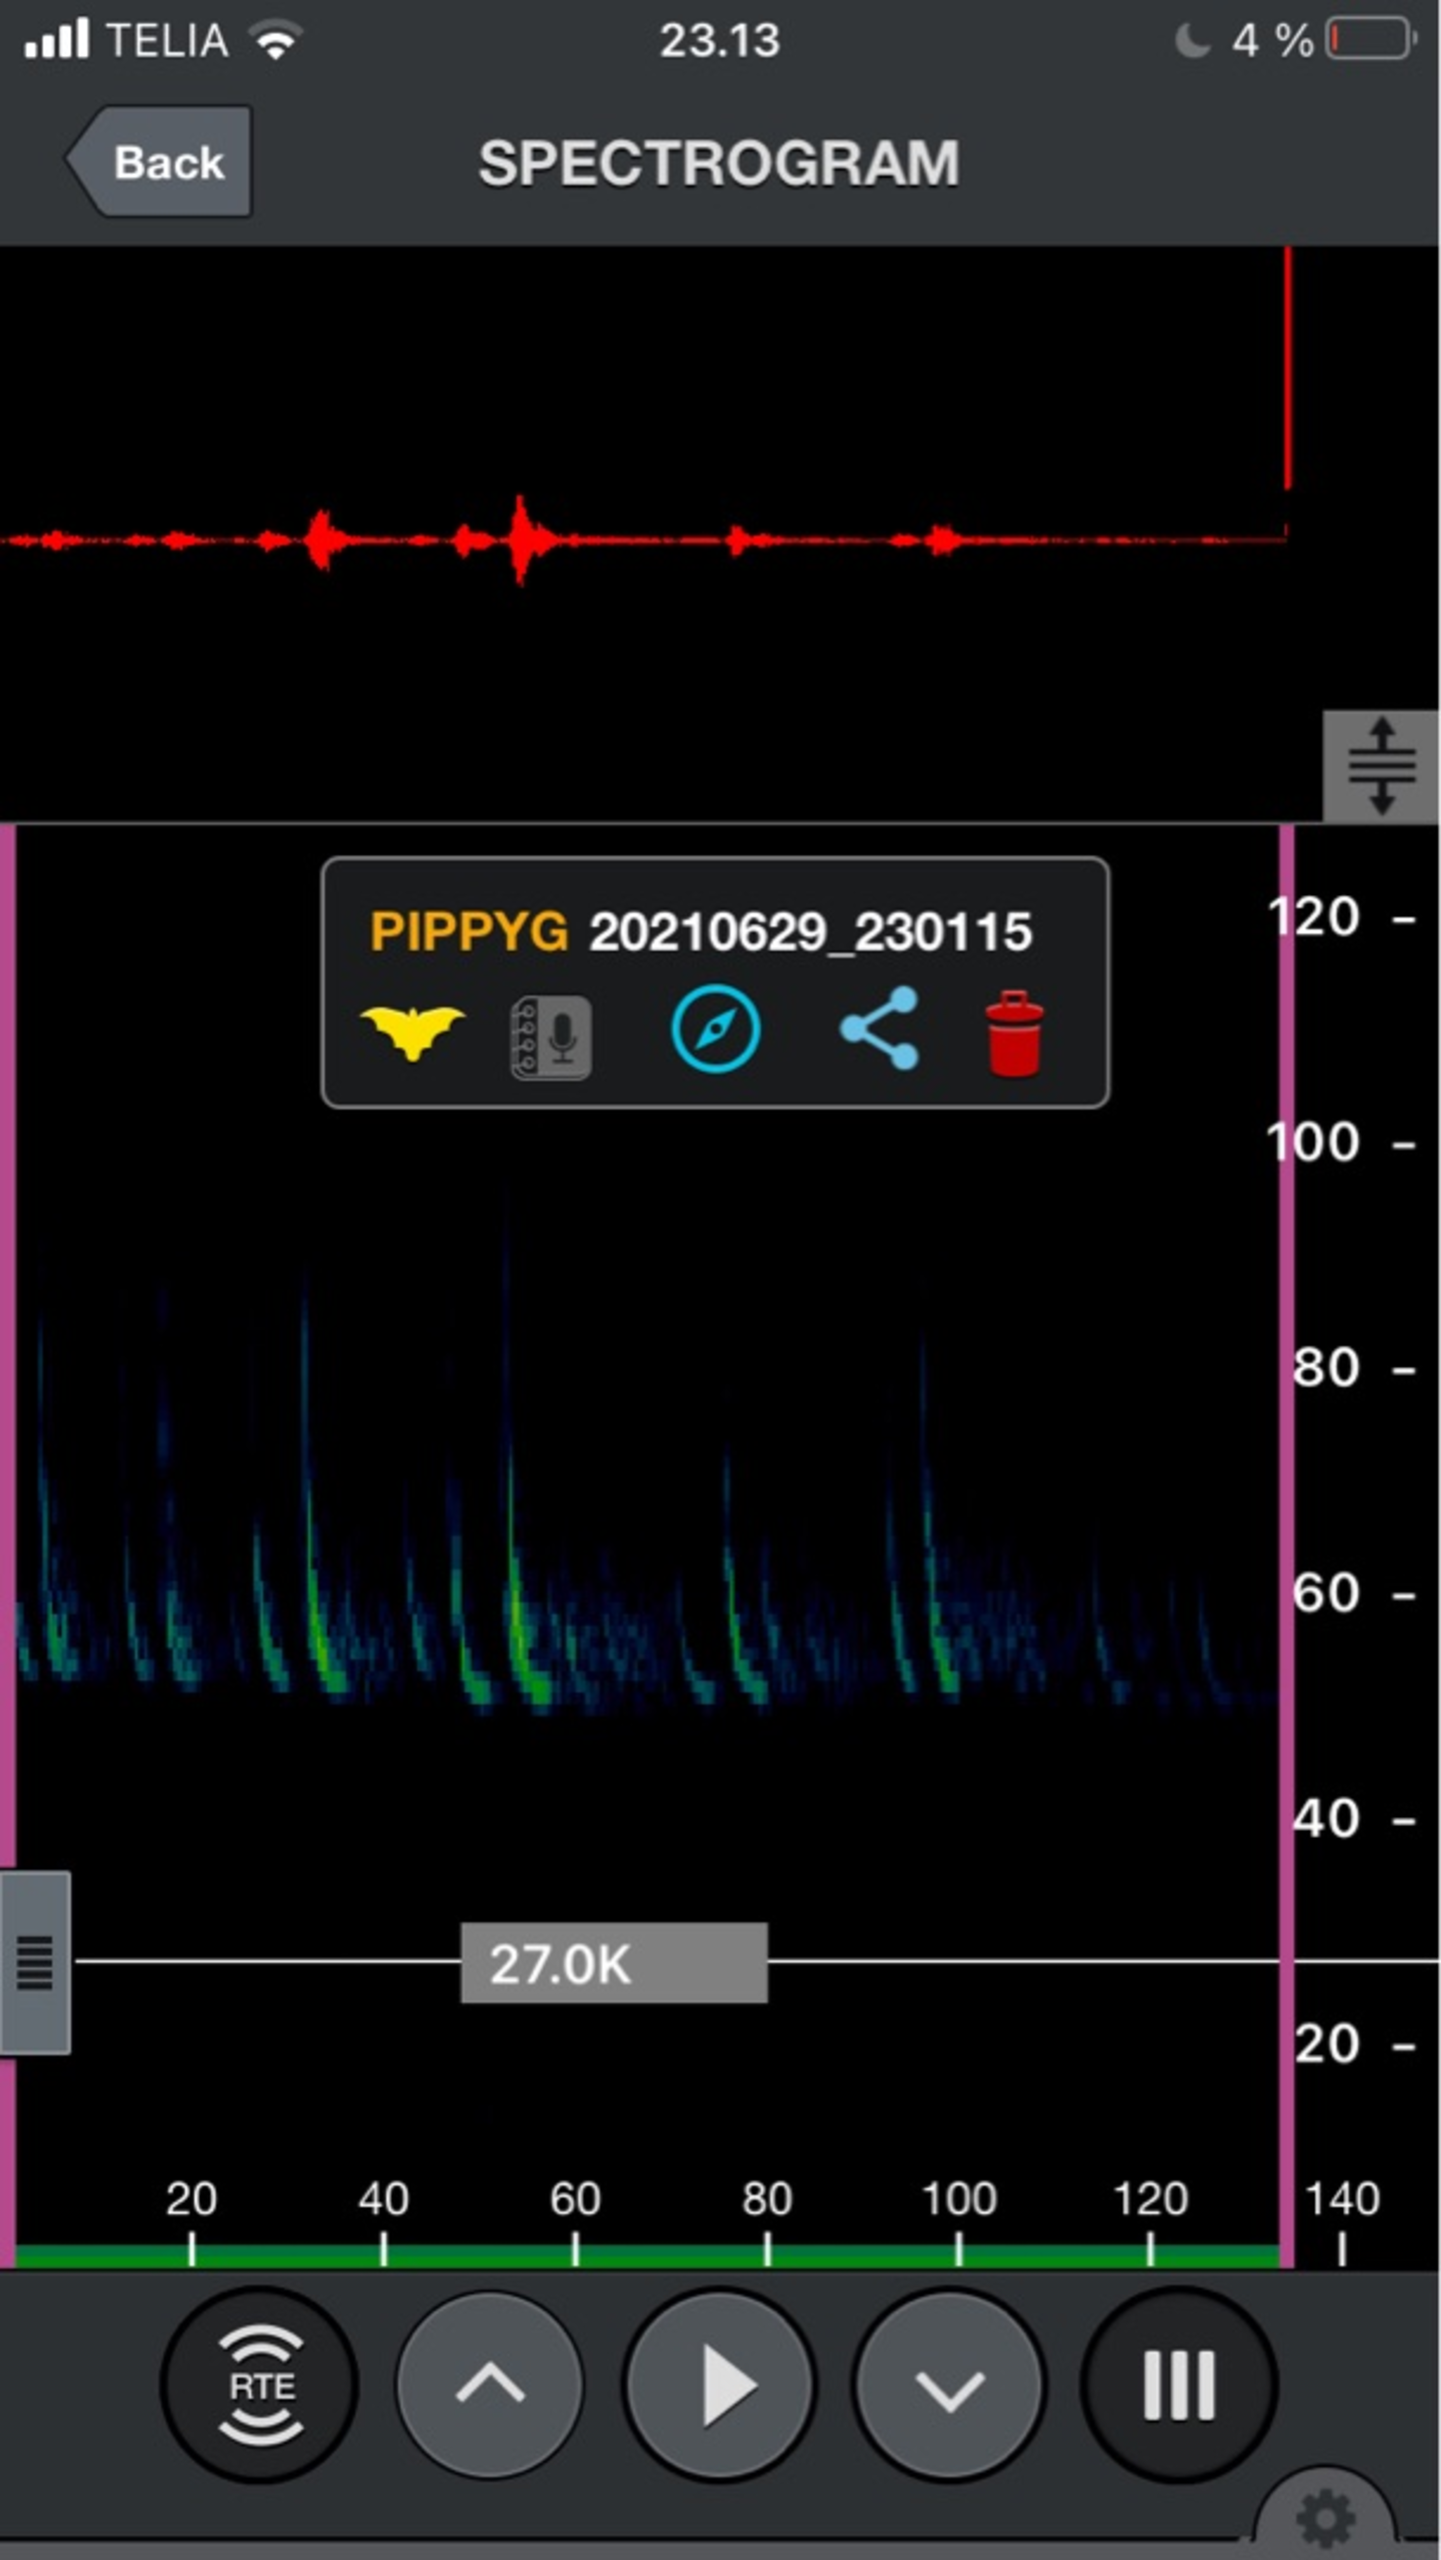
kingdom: Animalia
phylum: Chordata
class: Mammalia
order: Chiroptera
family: Vespertilionidae
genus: Pipistrellus
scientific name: Pipistrellus pygmaeus
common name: Dværgflagermus
